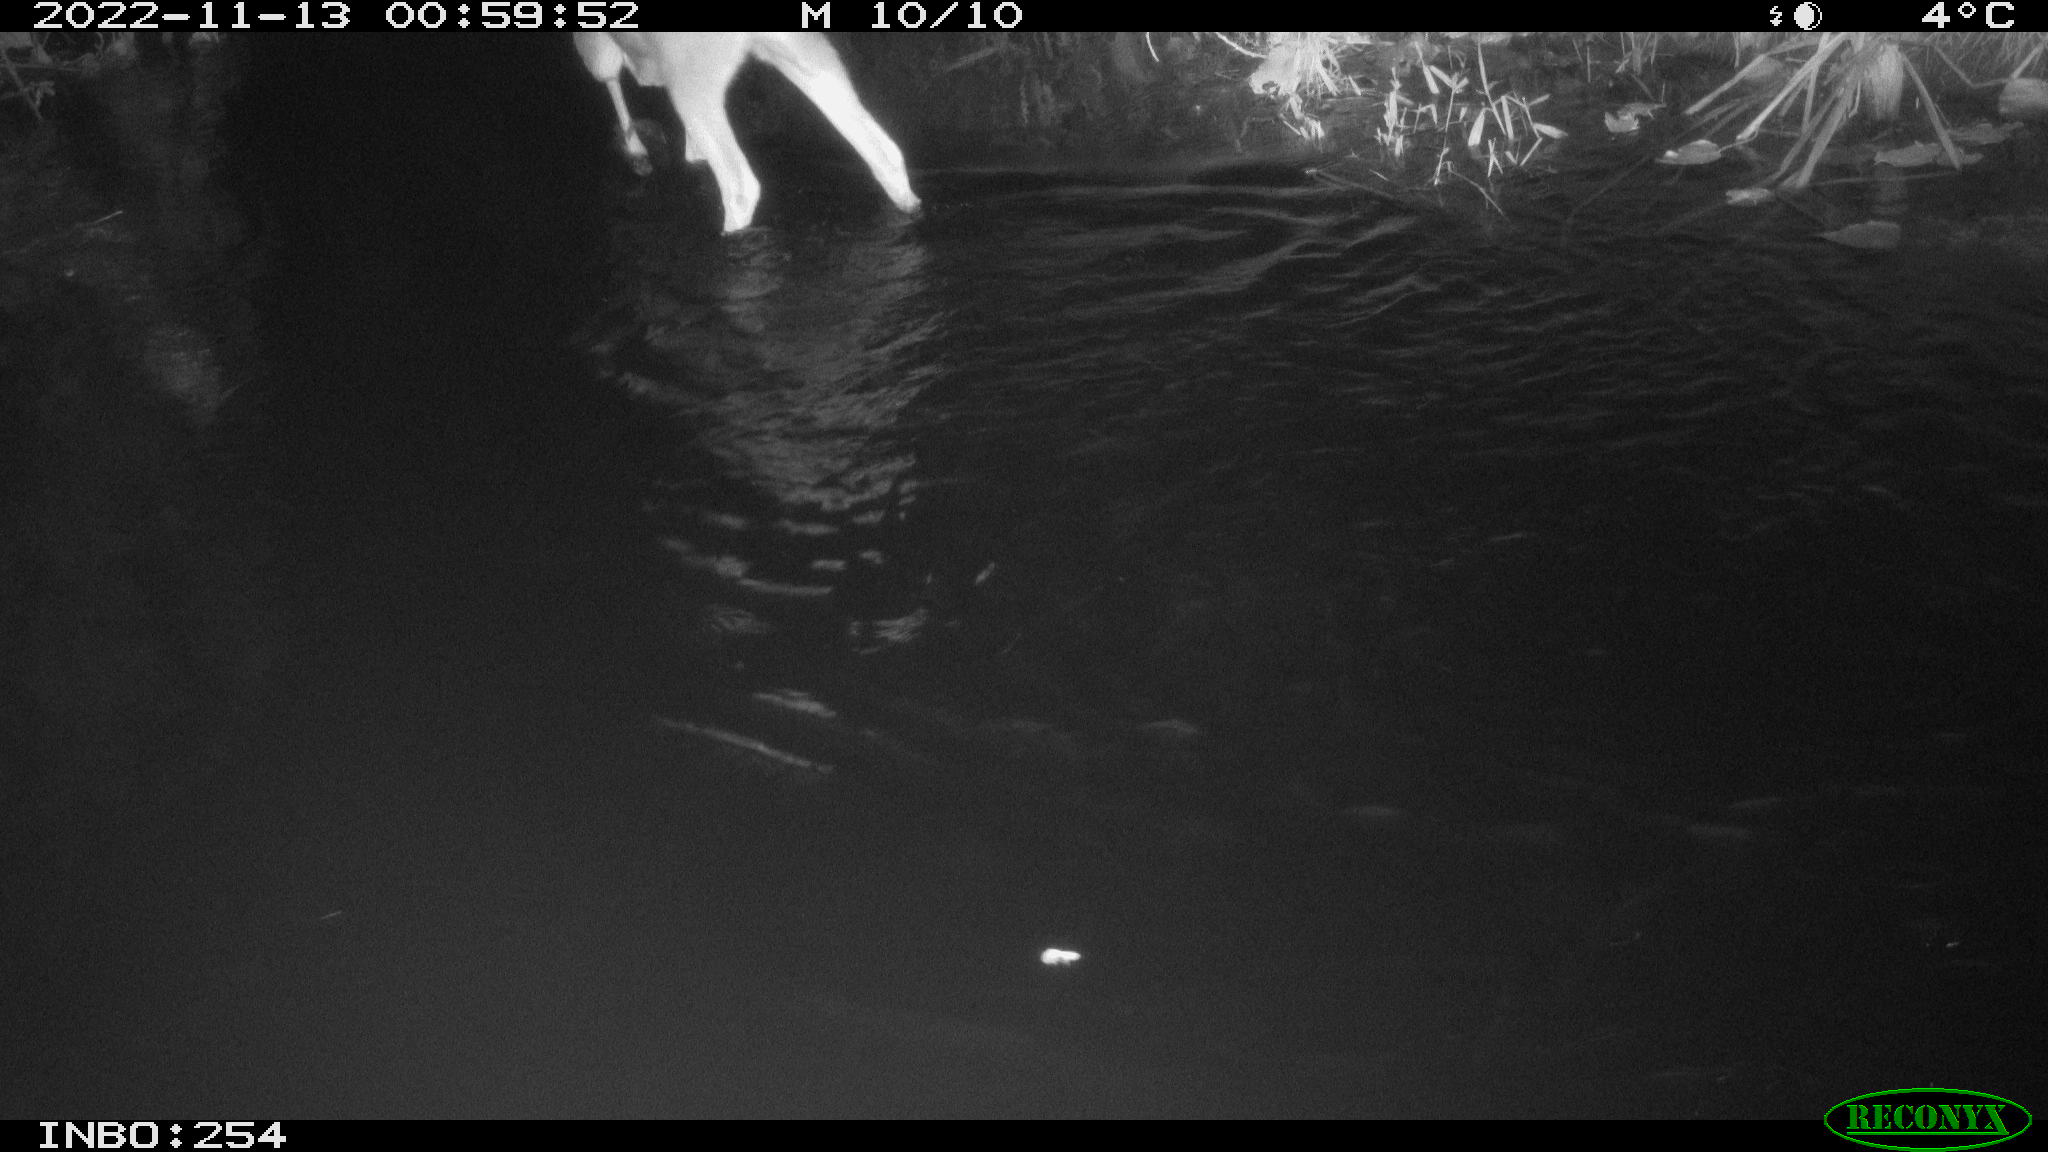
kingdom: Animalia
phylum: Chordata
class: Aves
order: Pelecaniformes
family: Ardeidae
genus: Ardea
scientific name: Ardea cinerea
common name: Grey heron
